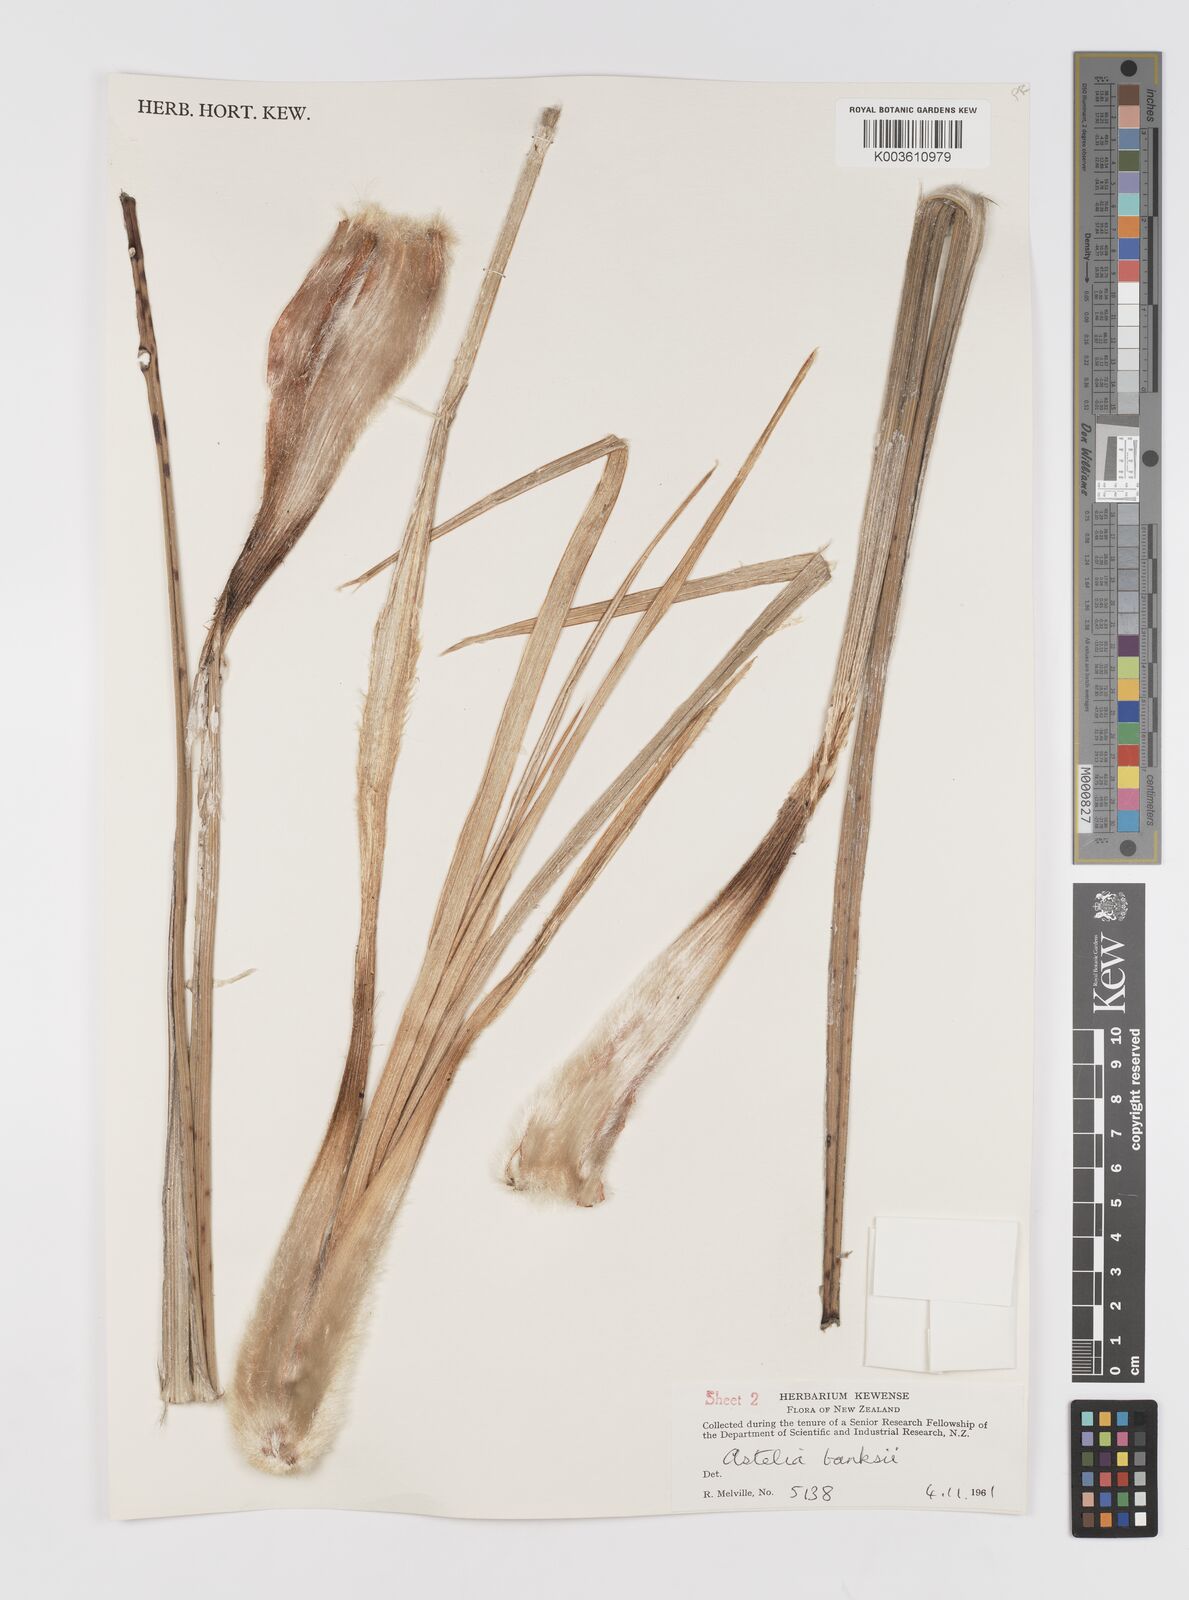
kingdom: Plantae
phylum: Tracheophyta
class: Liliopsida
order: Asparagales
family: Asteliaceae
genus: Astelia
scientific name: Astelia banksii
